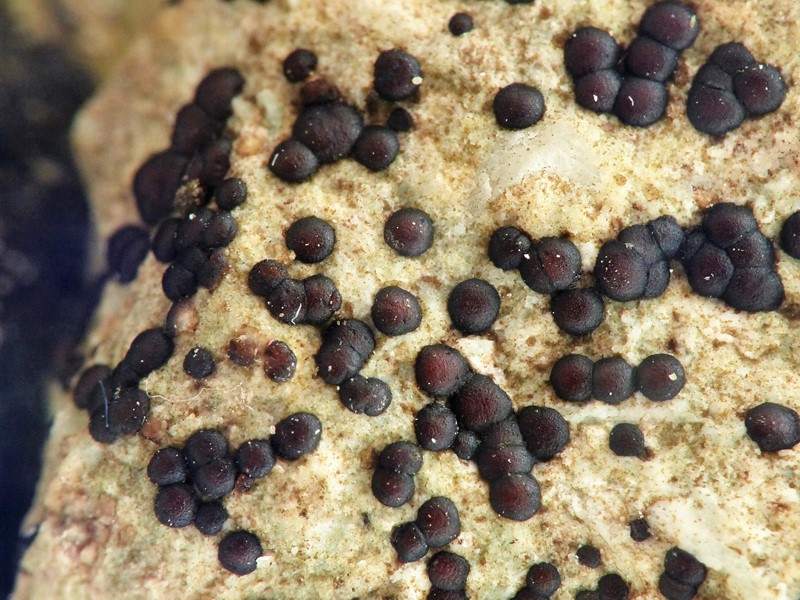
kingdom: Fungi
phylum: Ascomycota
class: Lecanoromycetes
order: Acarosporales
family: Acarosporaceae
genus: Sarcogyne
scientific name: Sarcogyne regularis
